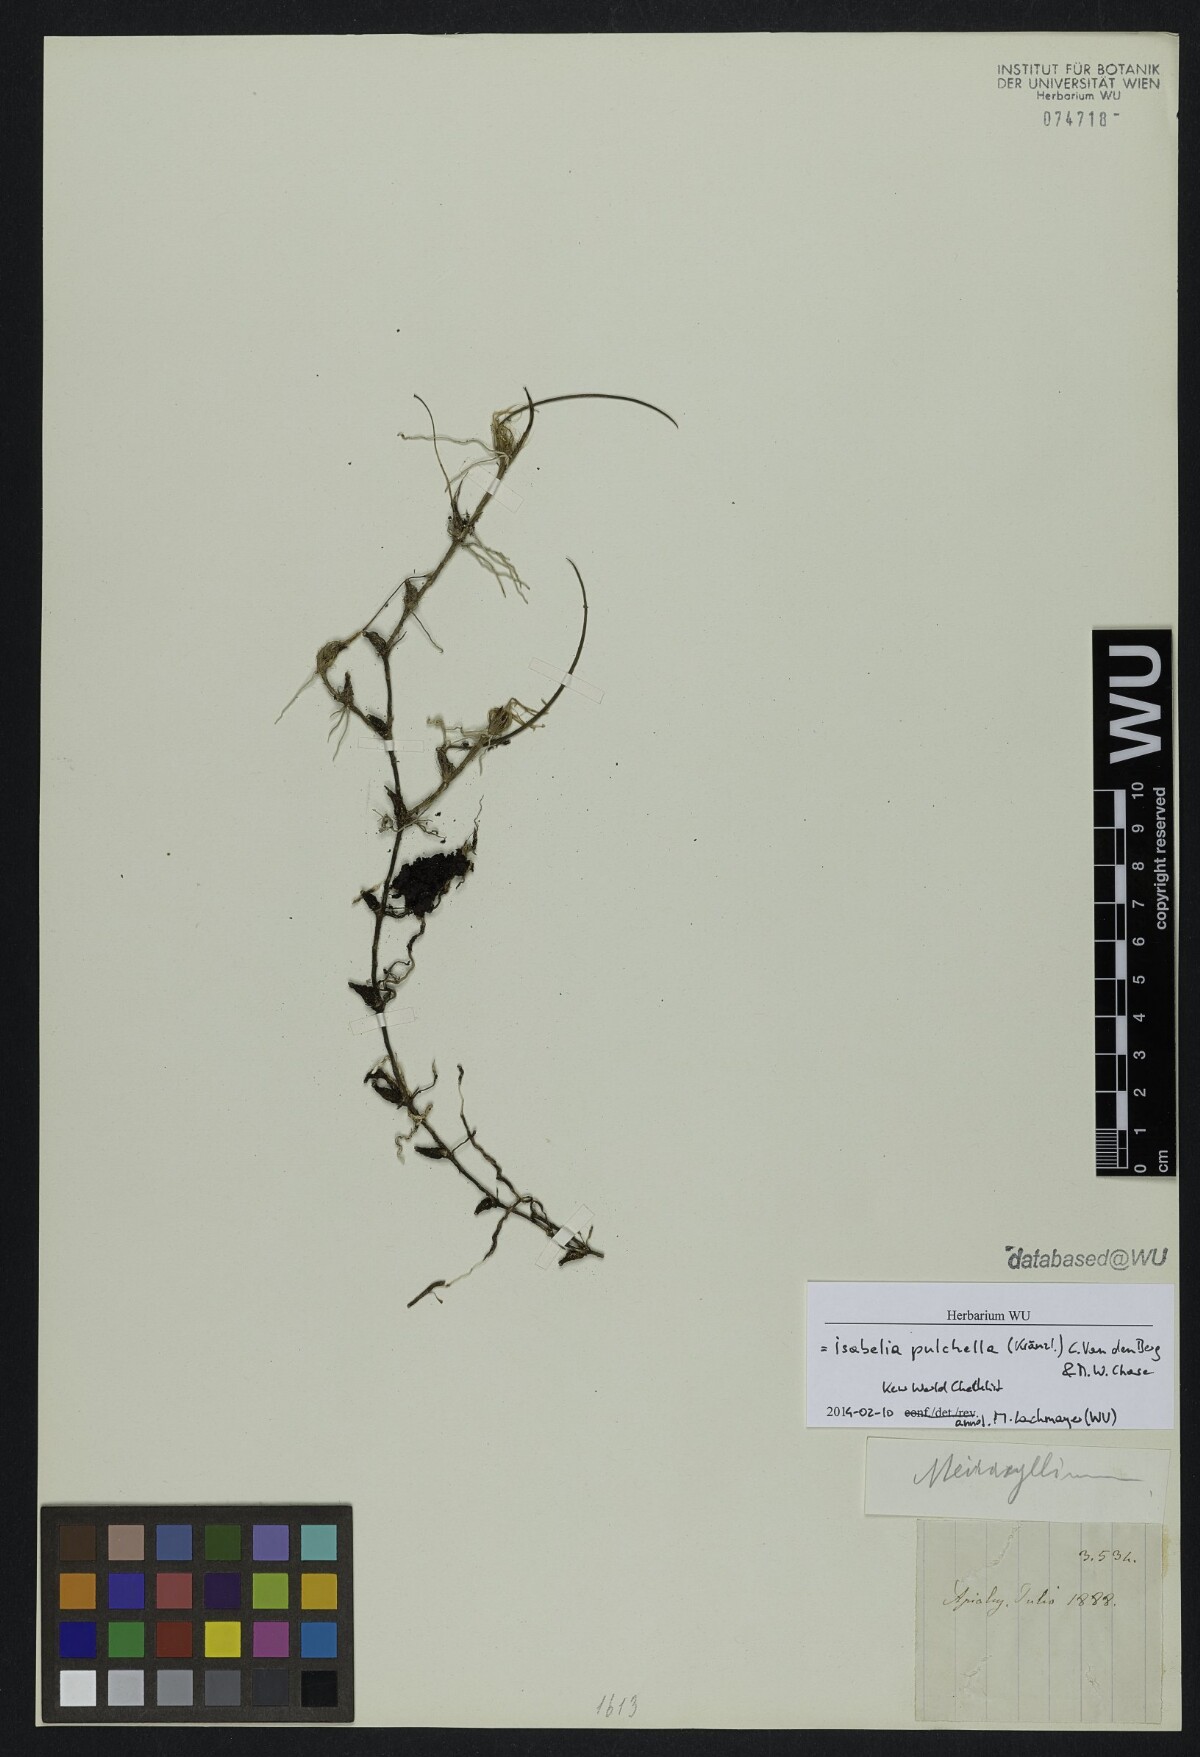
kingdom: Plantae
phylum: Tracheophyta
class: Liliopsida
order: Asparagales
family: Orchidaceae
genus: Isabelia
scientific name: Isabelia pulchella
